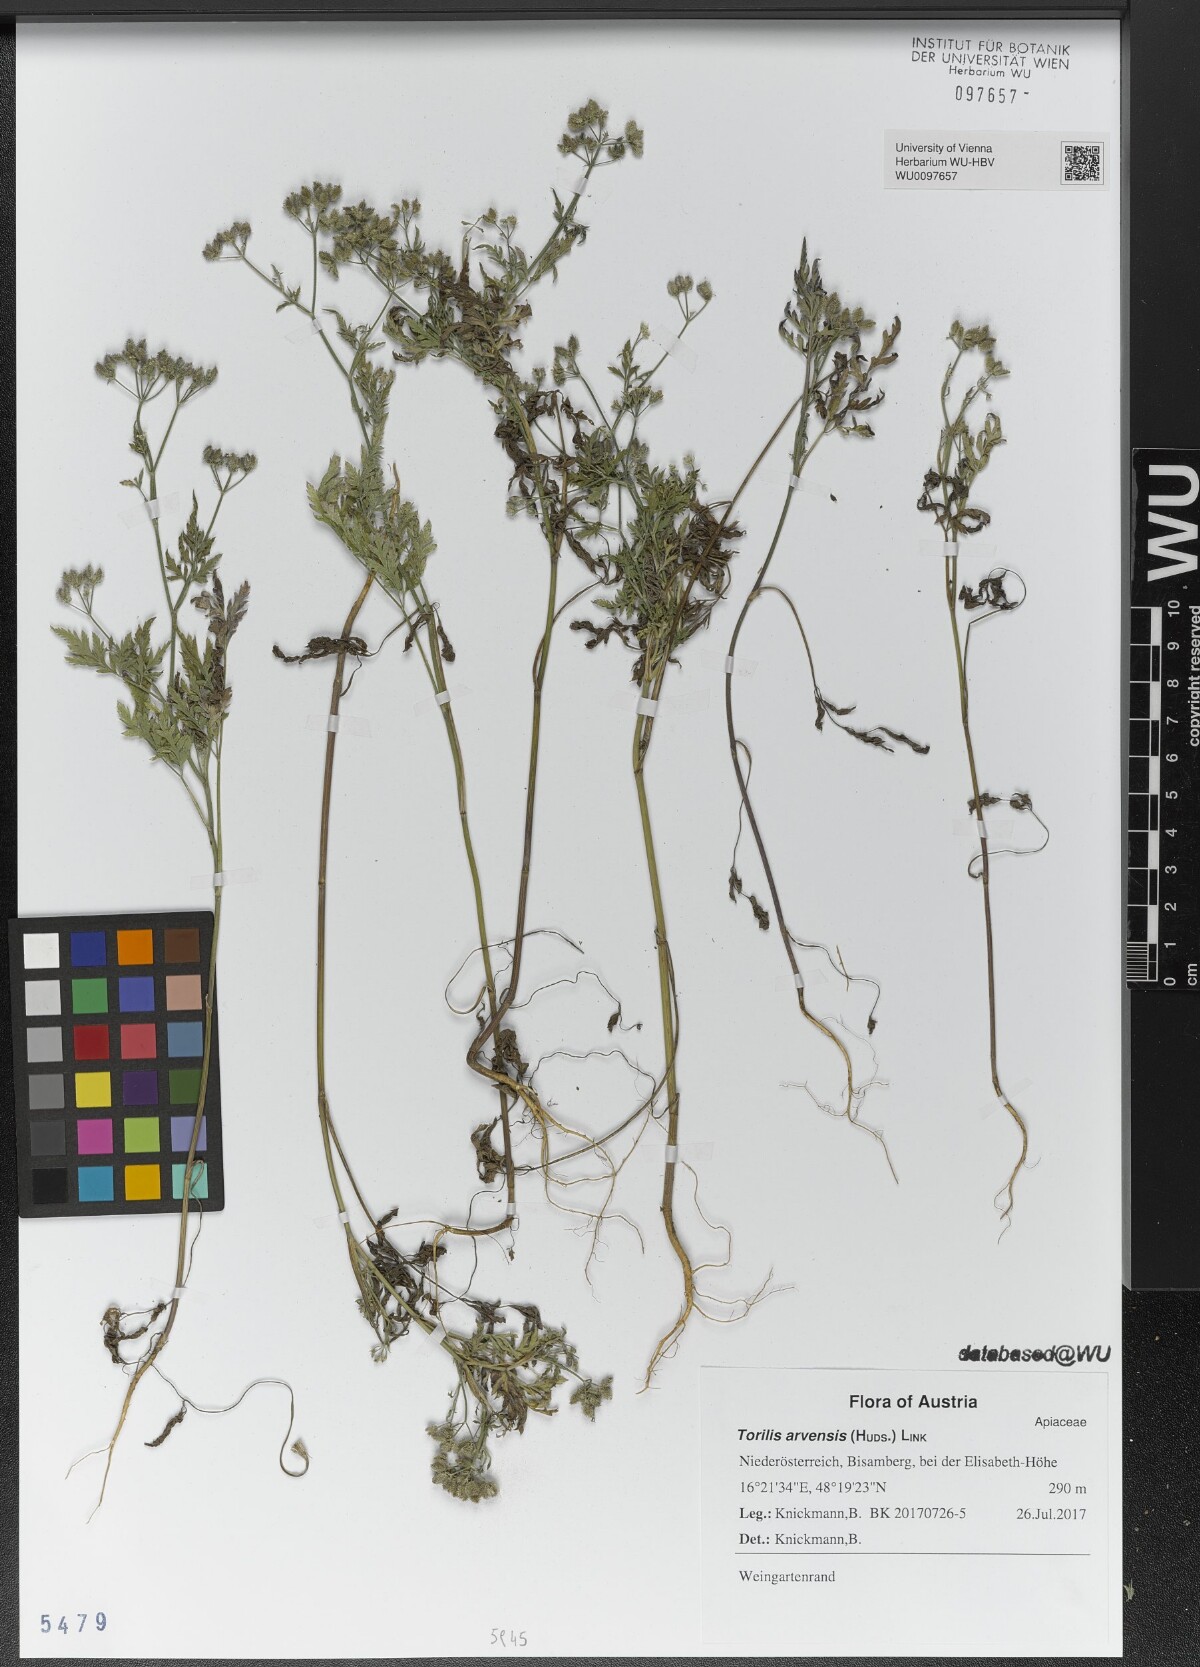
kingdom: Plantae
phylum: Tracheophyta
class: Magnoliopsida
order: Apiales
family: Apiaceae
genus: Torilis
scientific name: Torilis arvensis
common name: Spreading hedge-parsley
